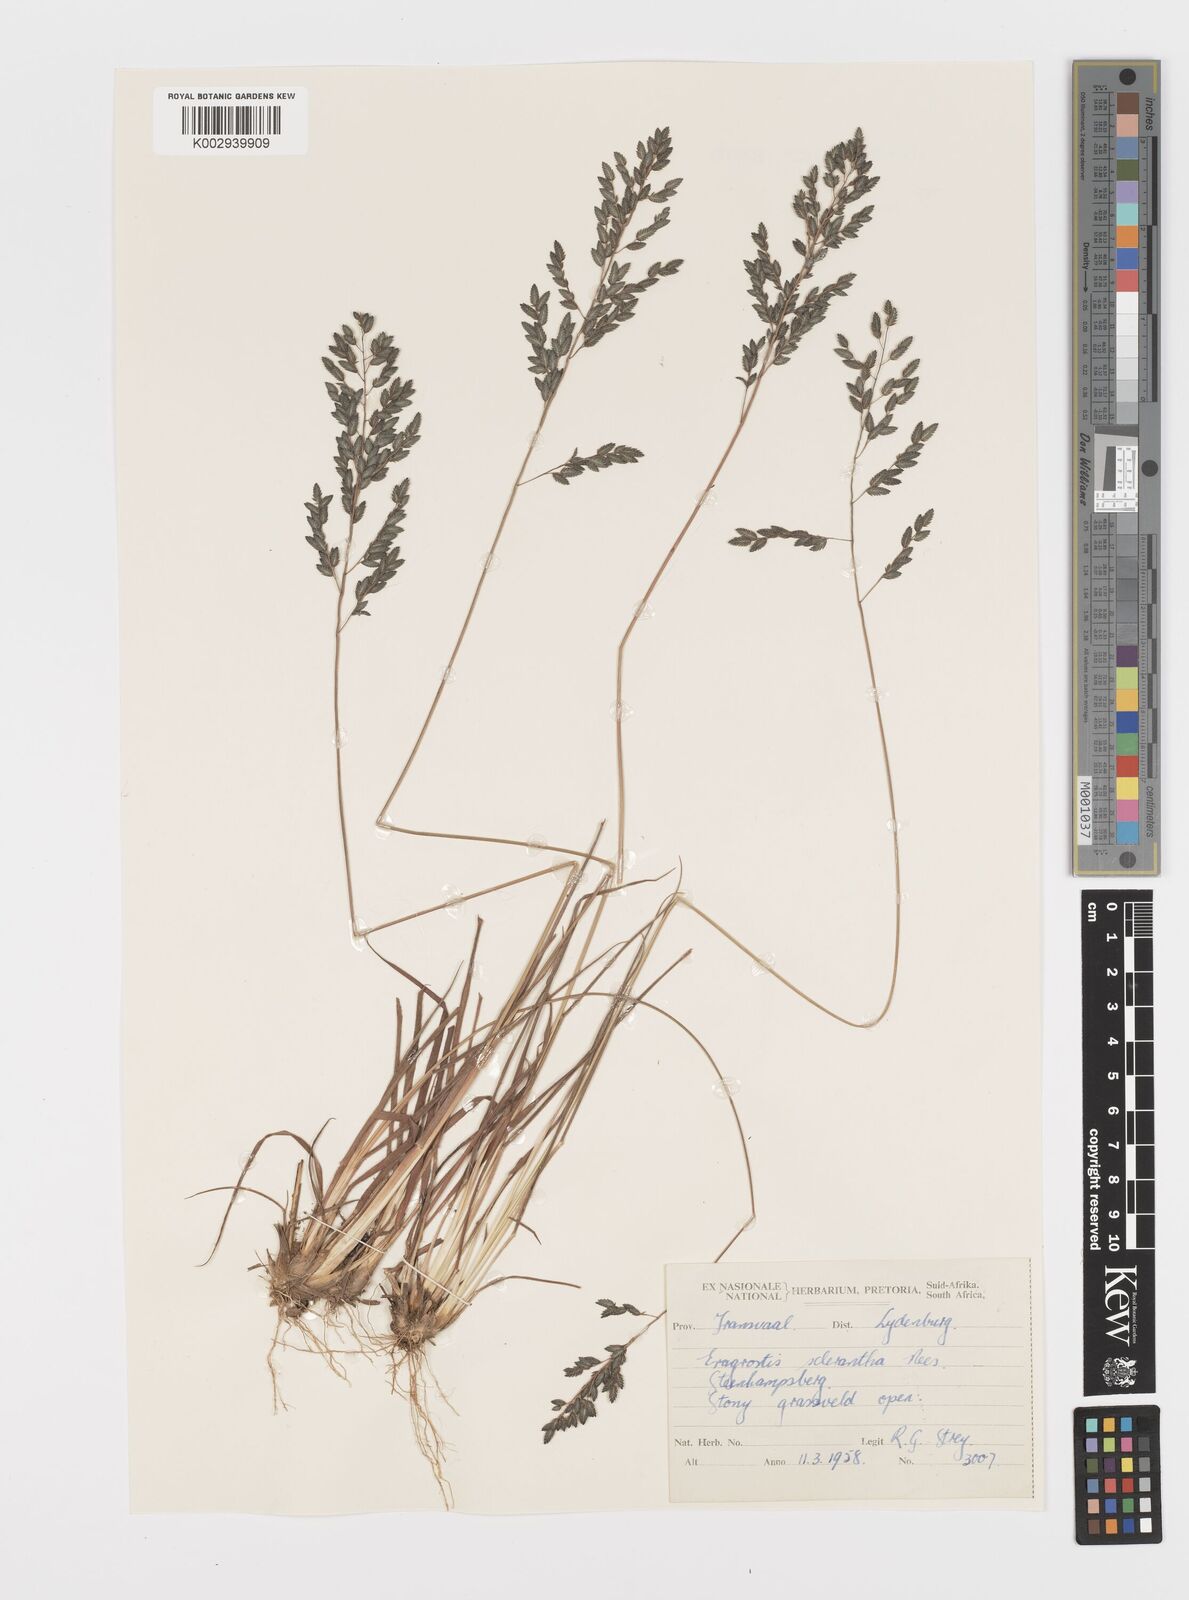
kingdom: Plantae
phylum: Tracheophyta
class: Liliopsida
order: Poales
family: Poaceae
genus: Eragrostis
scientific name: Eragrostis sclerantha
